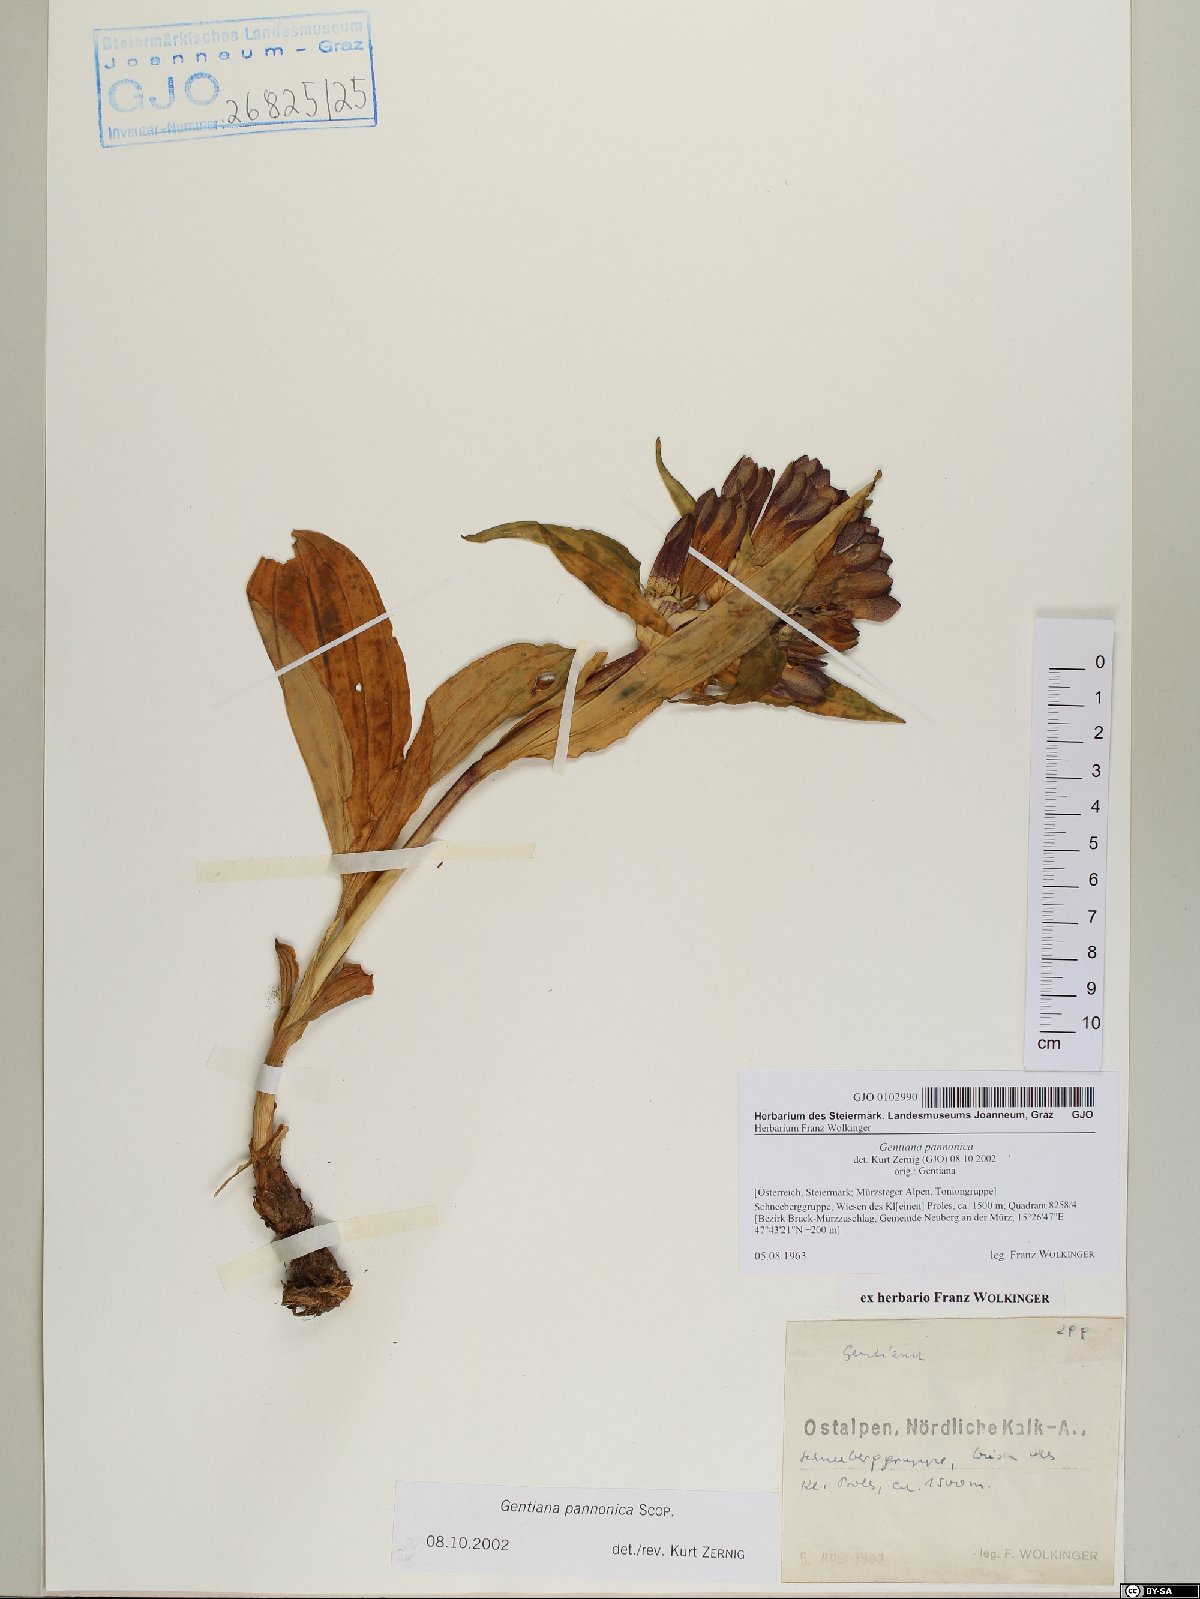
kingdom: Plantae
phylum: Tracheophyta
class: Magnoliopsida
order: Gentianales
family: Gentianaceae
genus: Gentiana
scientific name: Gentiana pannonica
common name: Hungarian gentian
